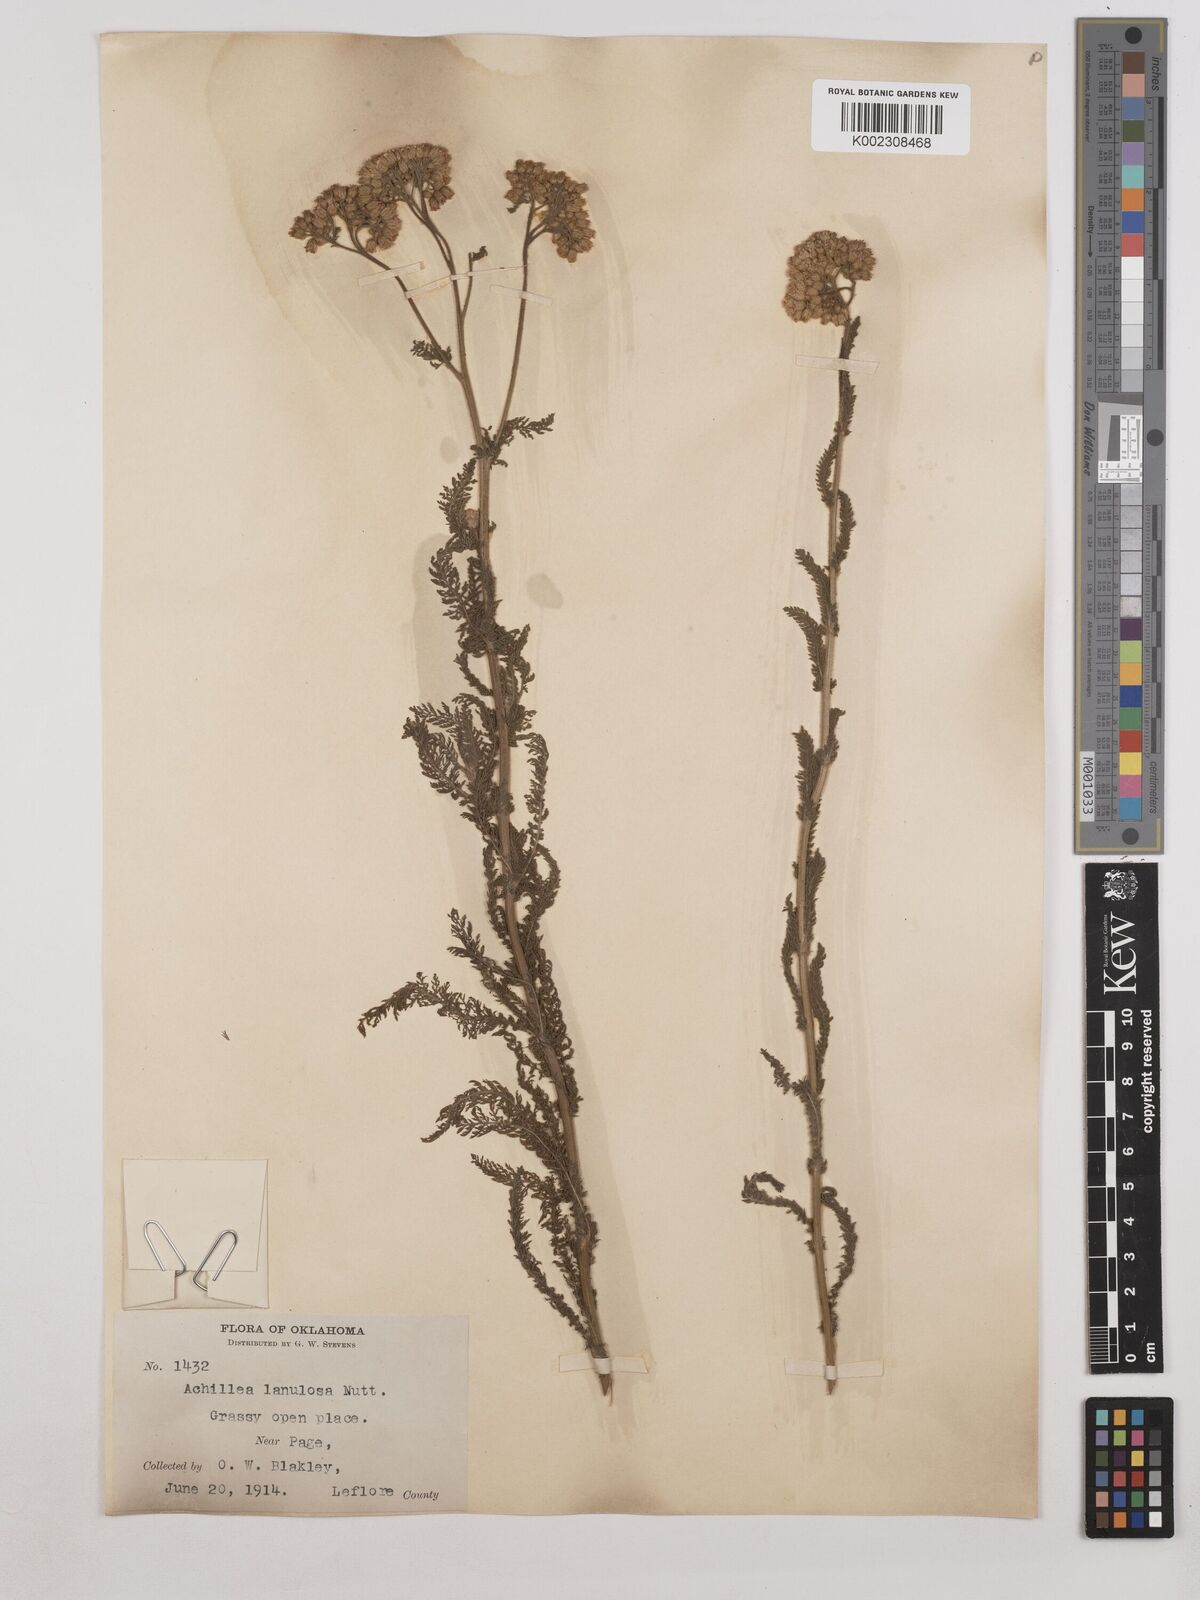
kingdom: Plantae
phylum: Tracheophyta
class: Magnoliopsida
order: Asterales
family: Asteraceae
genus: Achillea
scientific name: Achillea millefolium
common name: Yarrow
